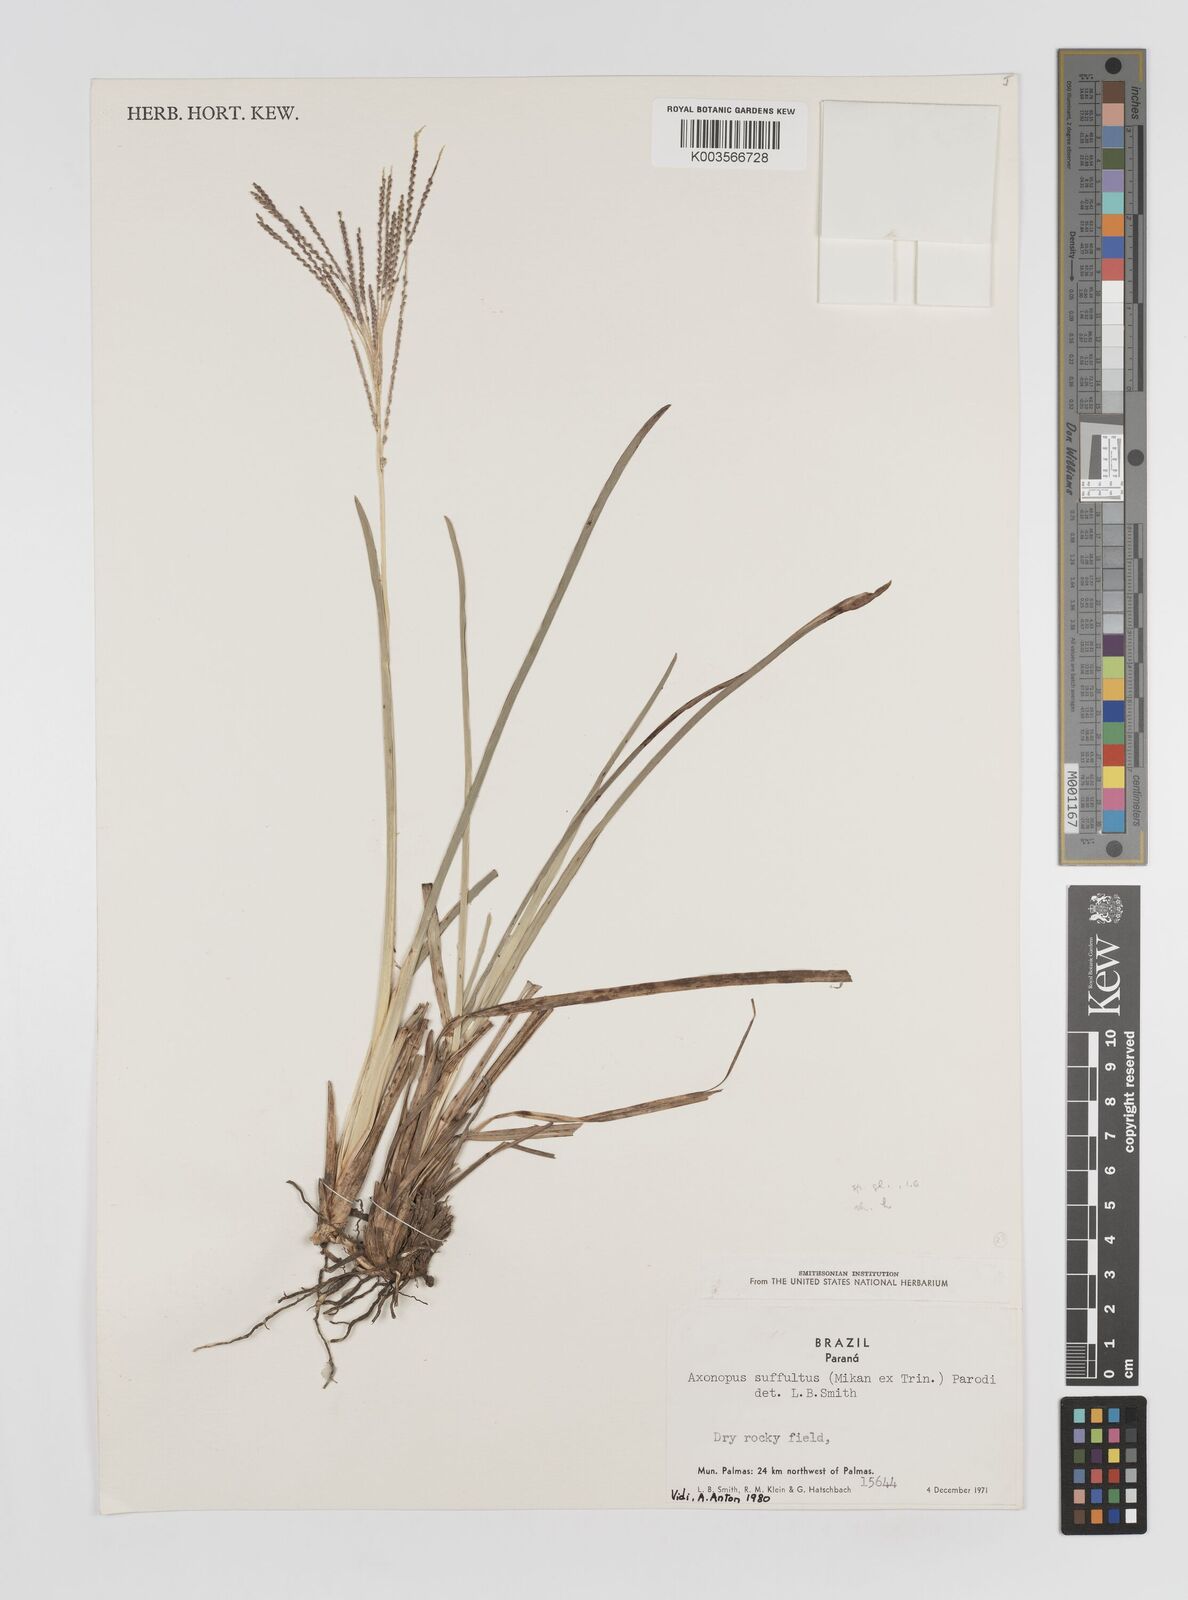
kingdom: Plantae
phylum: Tracheophyta
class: Liliopsida
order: Poales
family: Poaceae
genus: Axonopus
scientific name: Axonopus suffultus
